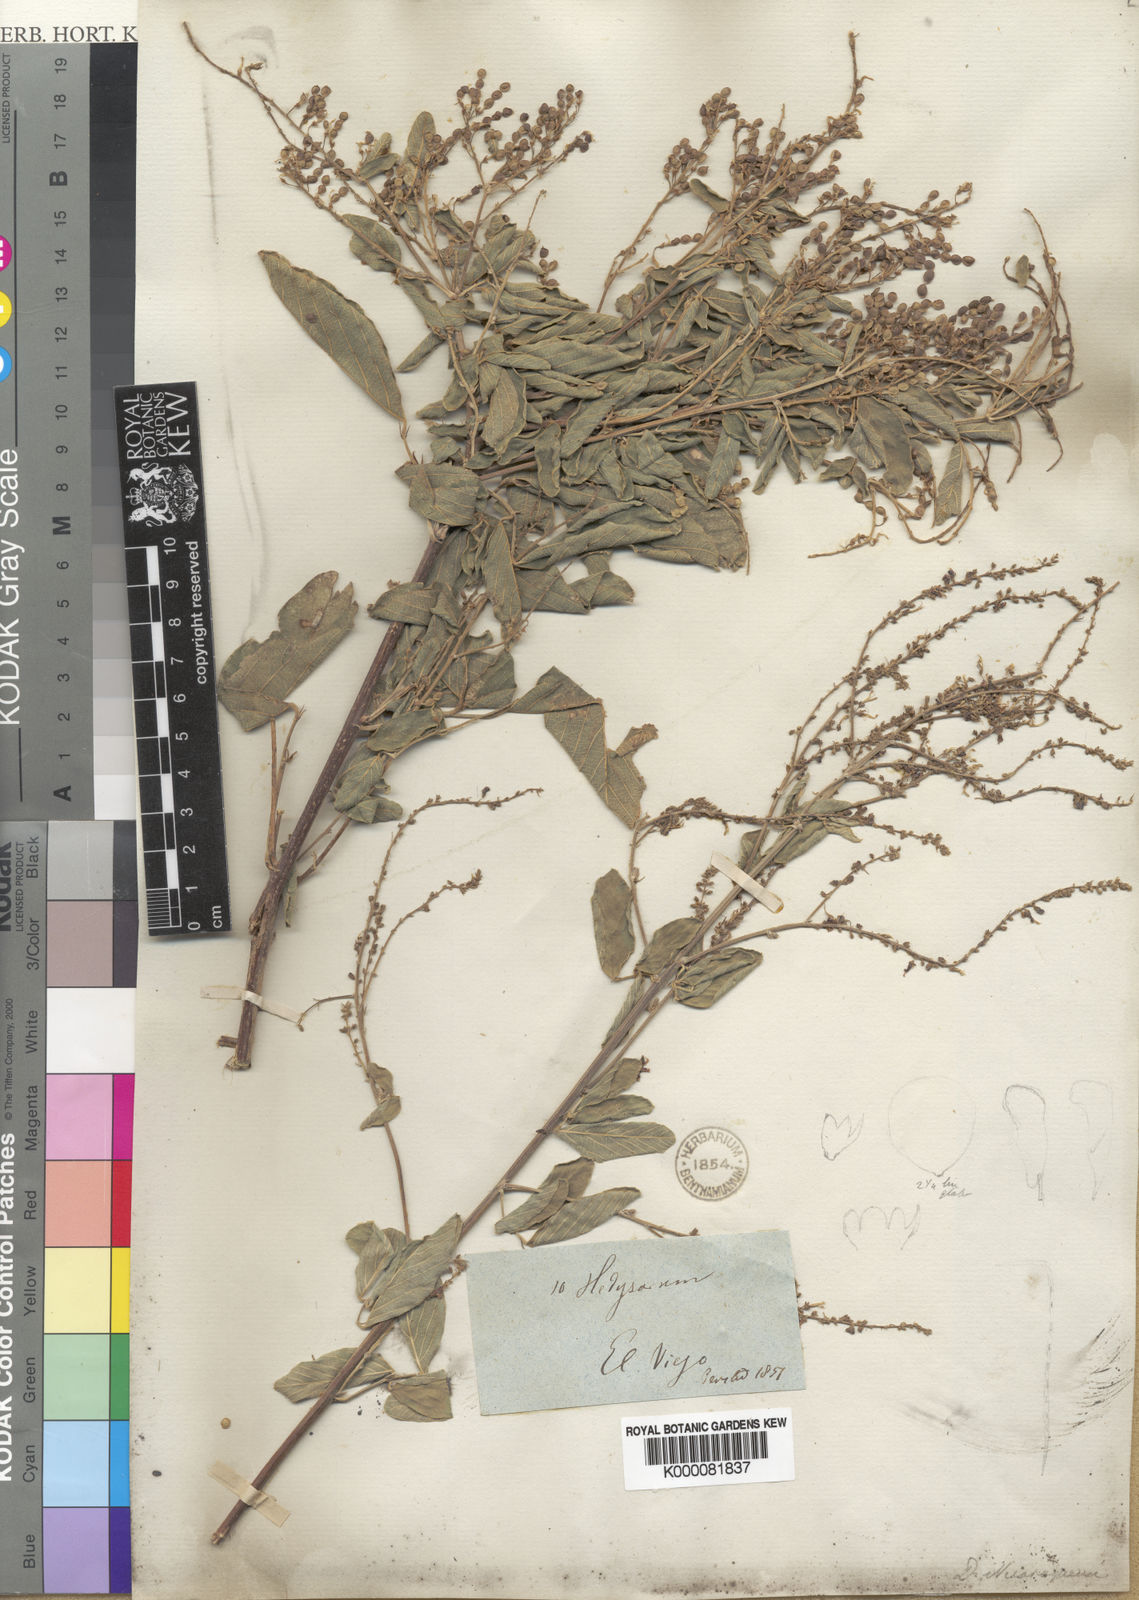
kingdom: Plantae
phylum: Tracheophyta
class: Magnoliopsida
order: Fabales
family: Fabaceae
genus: Desmodium
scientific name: Desmodium nicaraguense
